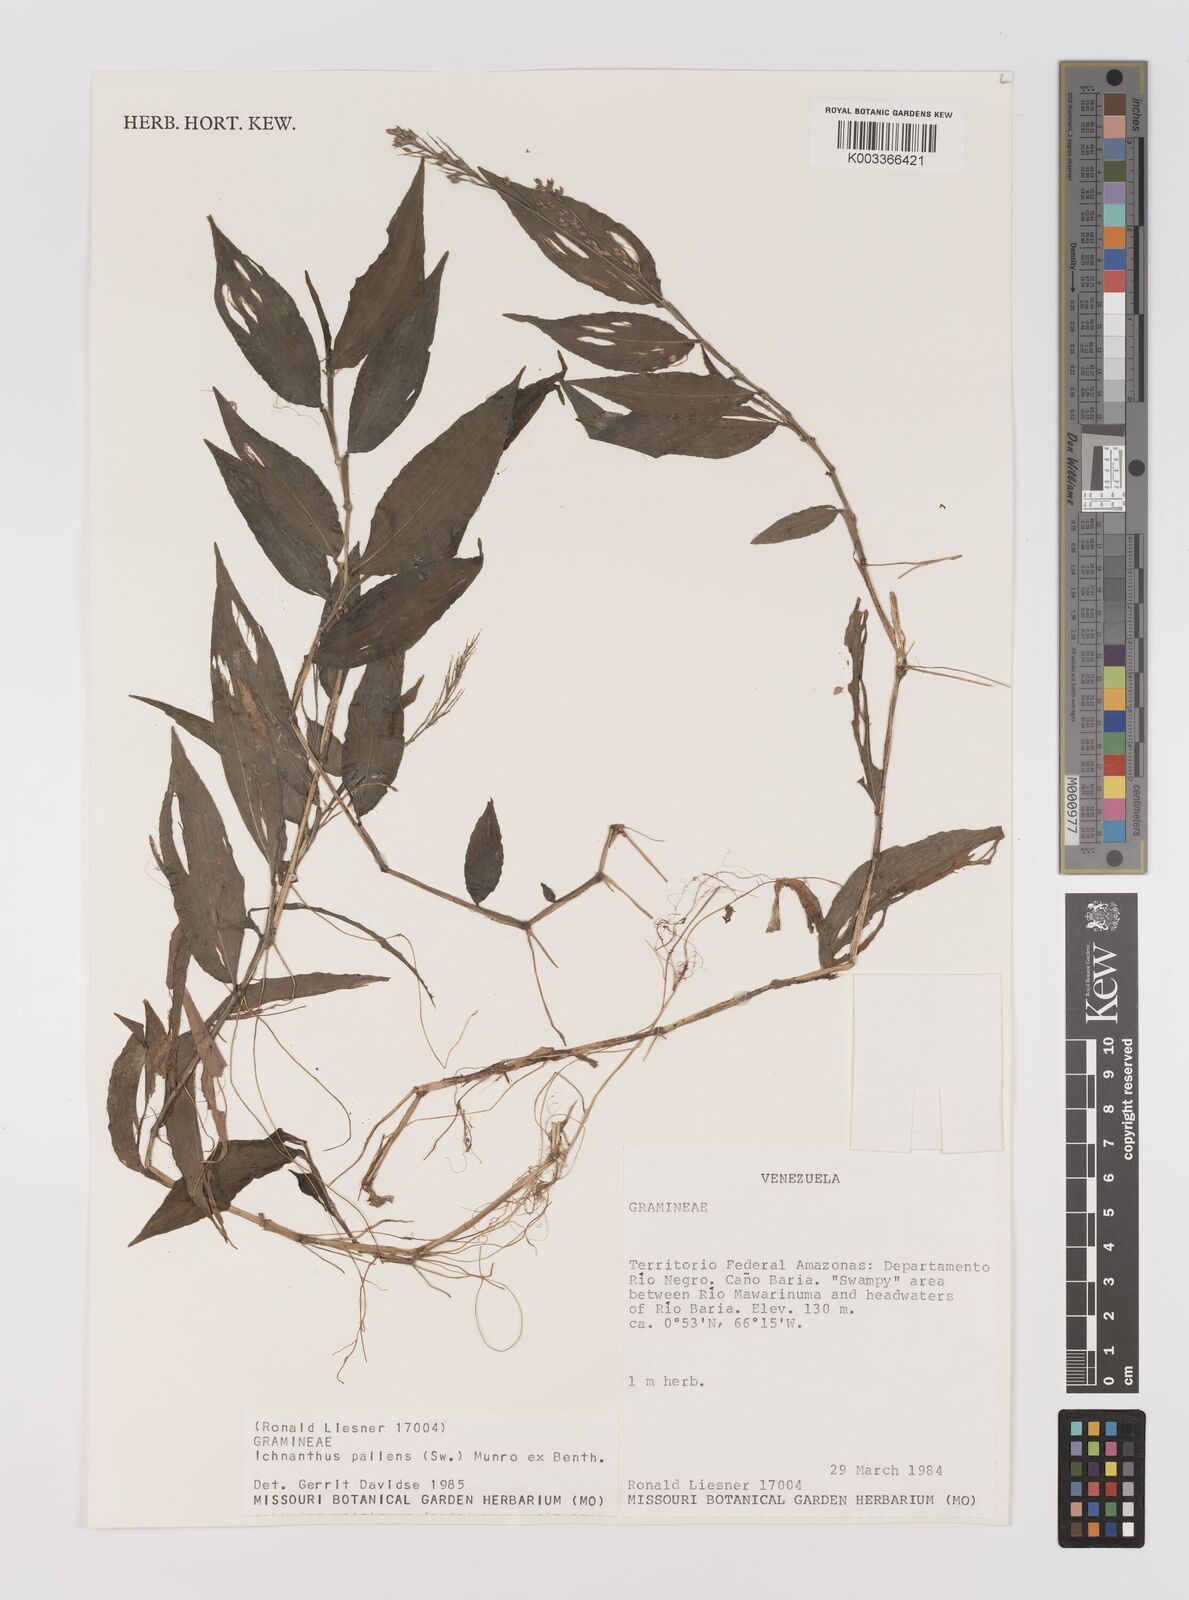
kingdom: Plantae
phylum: Tracheophyta
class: Liliopsida
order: Poales
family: Poaceae
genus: Ichnanthus
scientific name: Ichnanthus pallens
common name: Water grass
